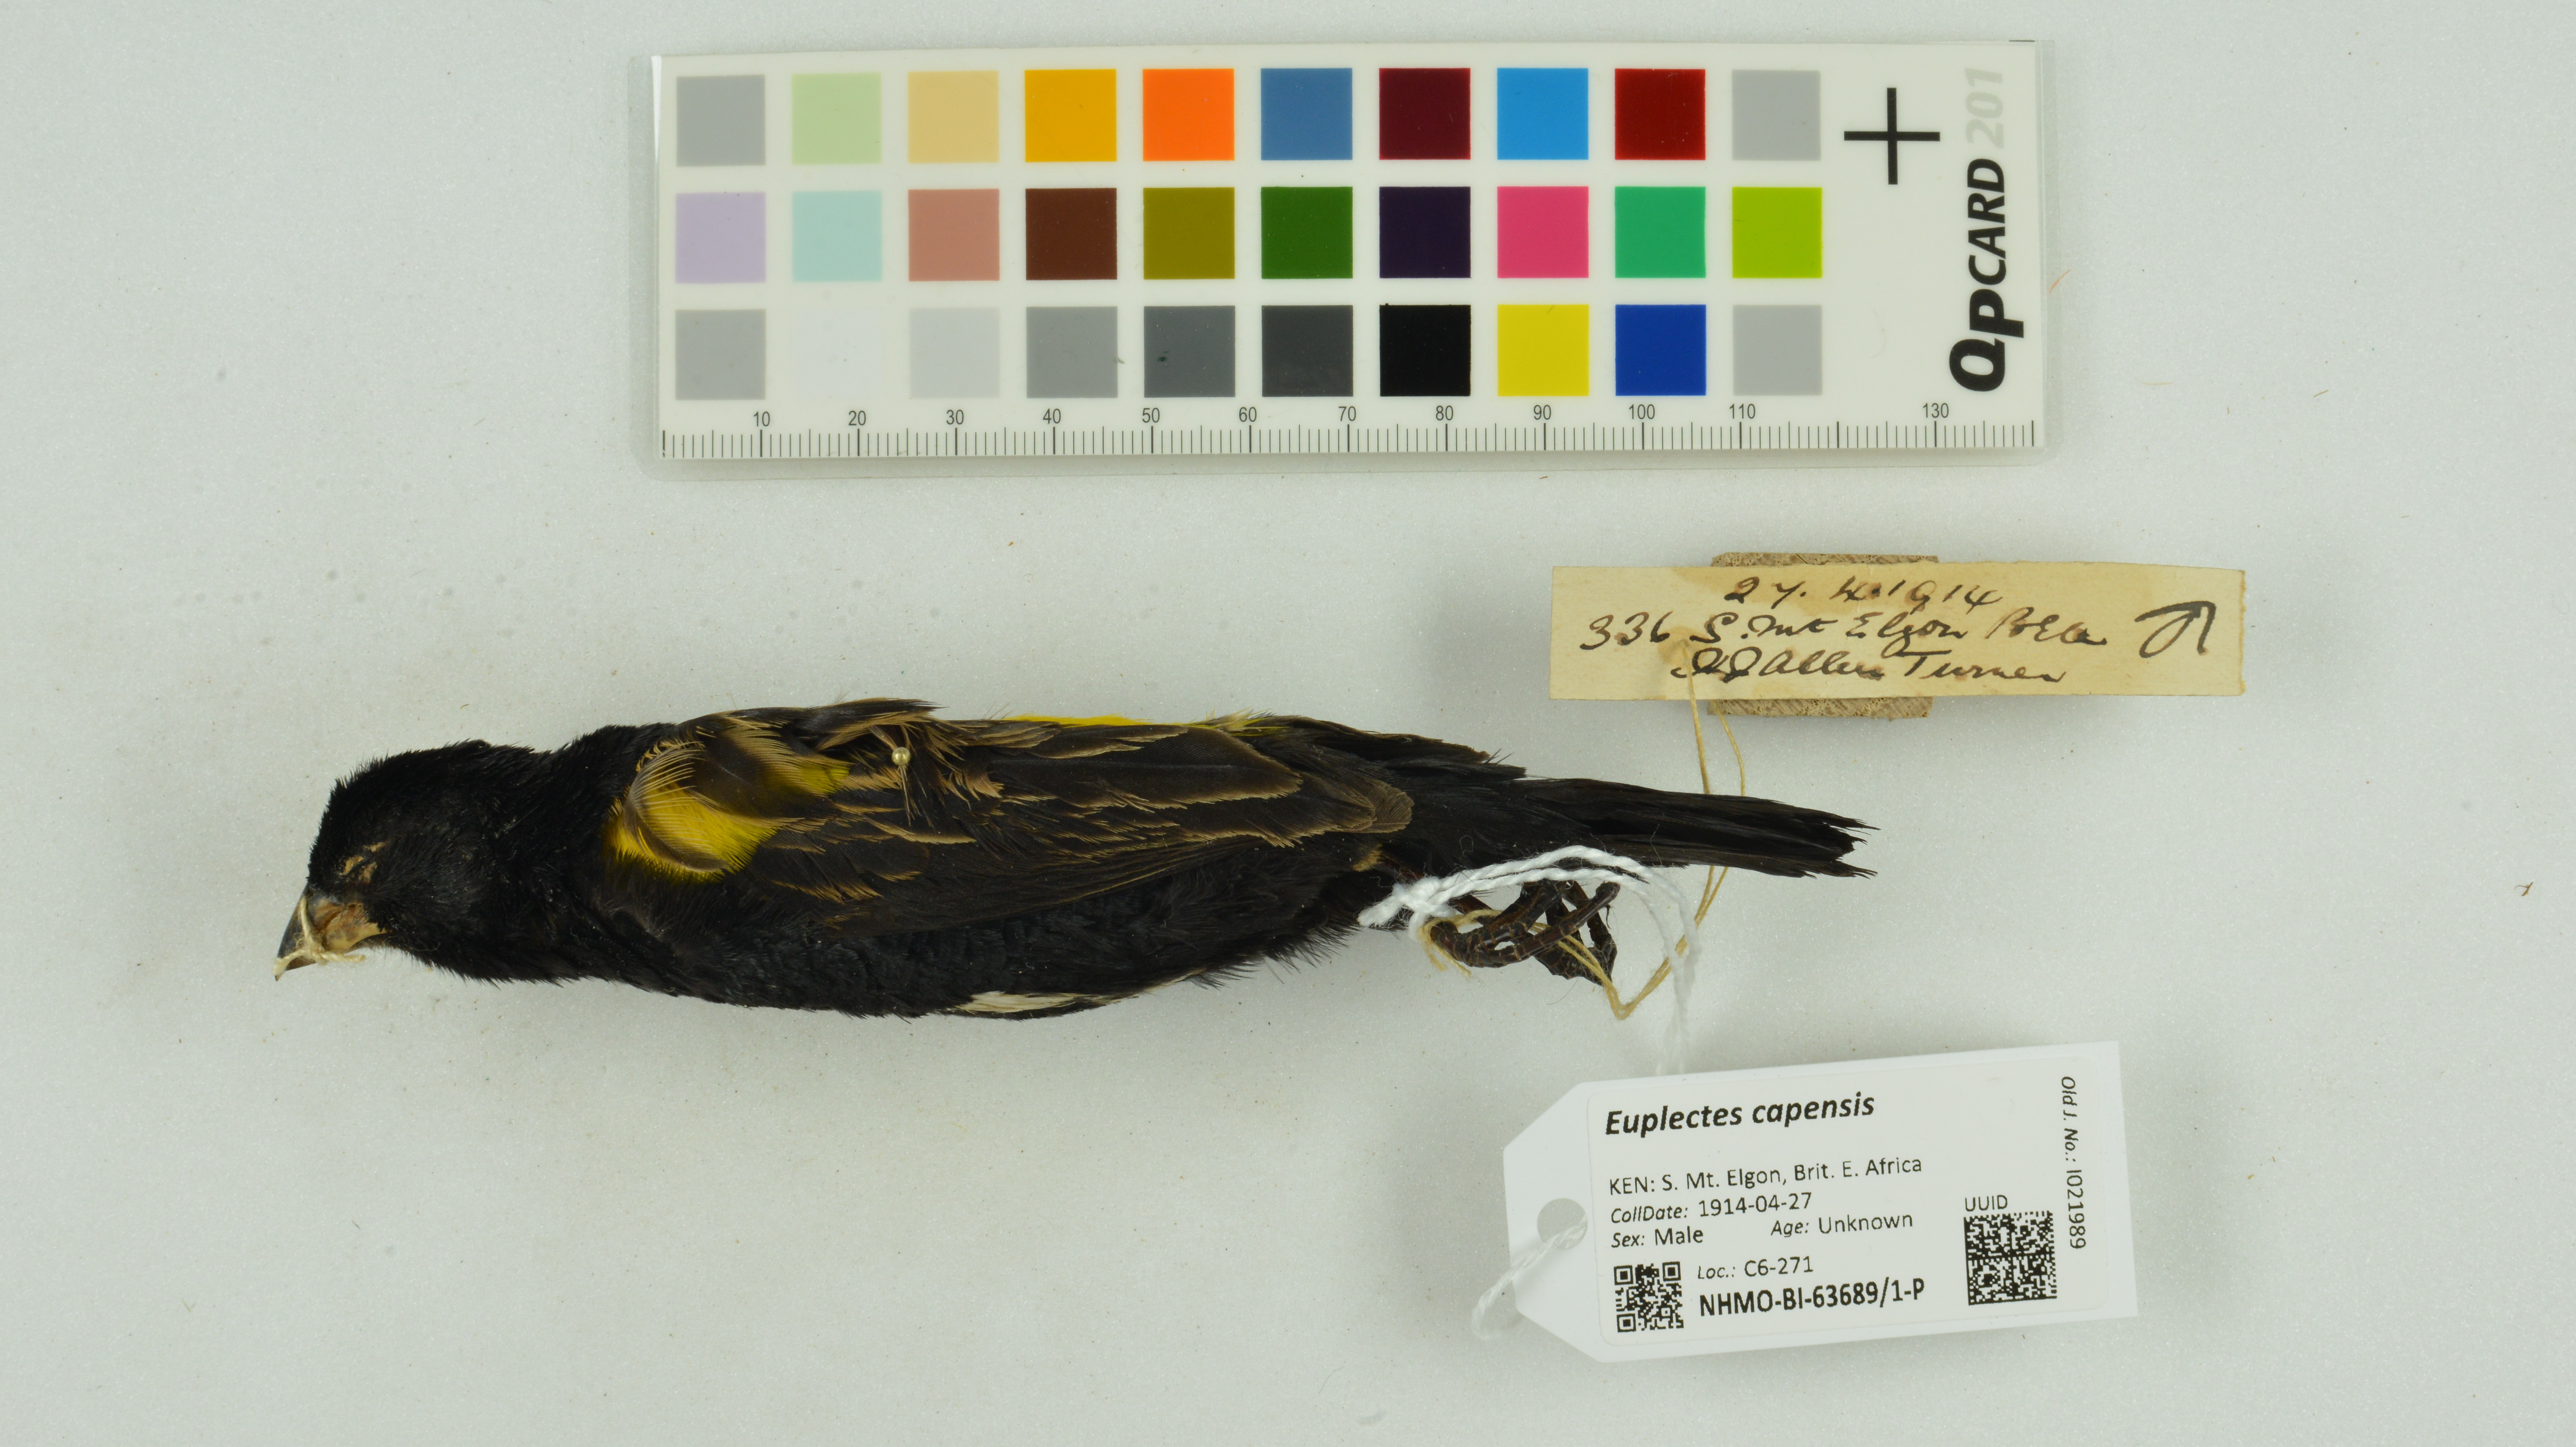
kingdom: Animalia
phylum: Chordata
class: Aves
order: Passeriformes
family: Ploceidae
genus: Euplectes
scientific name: Euplectes capensis
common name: Yellow bishop
